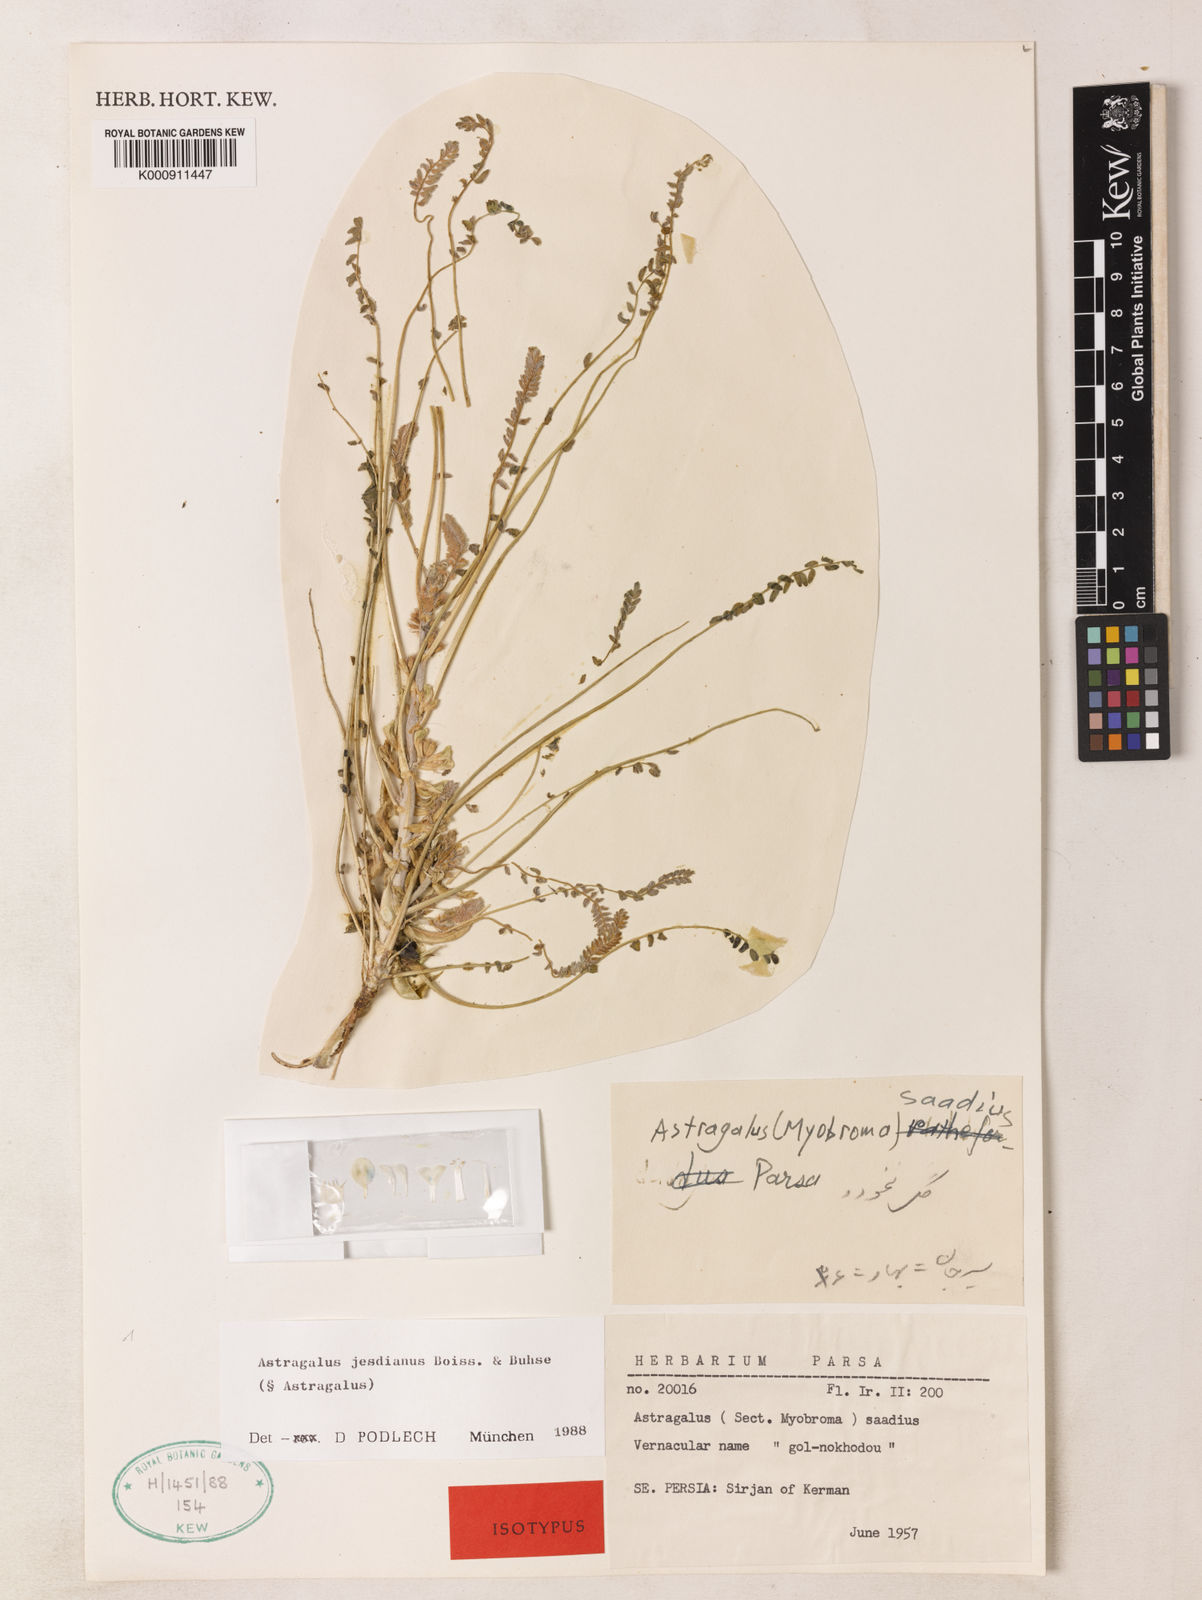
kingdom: Plantae
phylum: Tracheophyta
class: Magnoliopsida
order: Fabales
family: Fabaceae
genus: Astragalus
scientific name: Astragalus jesdianus
